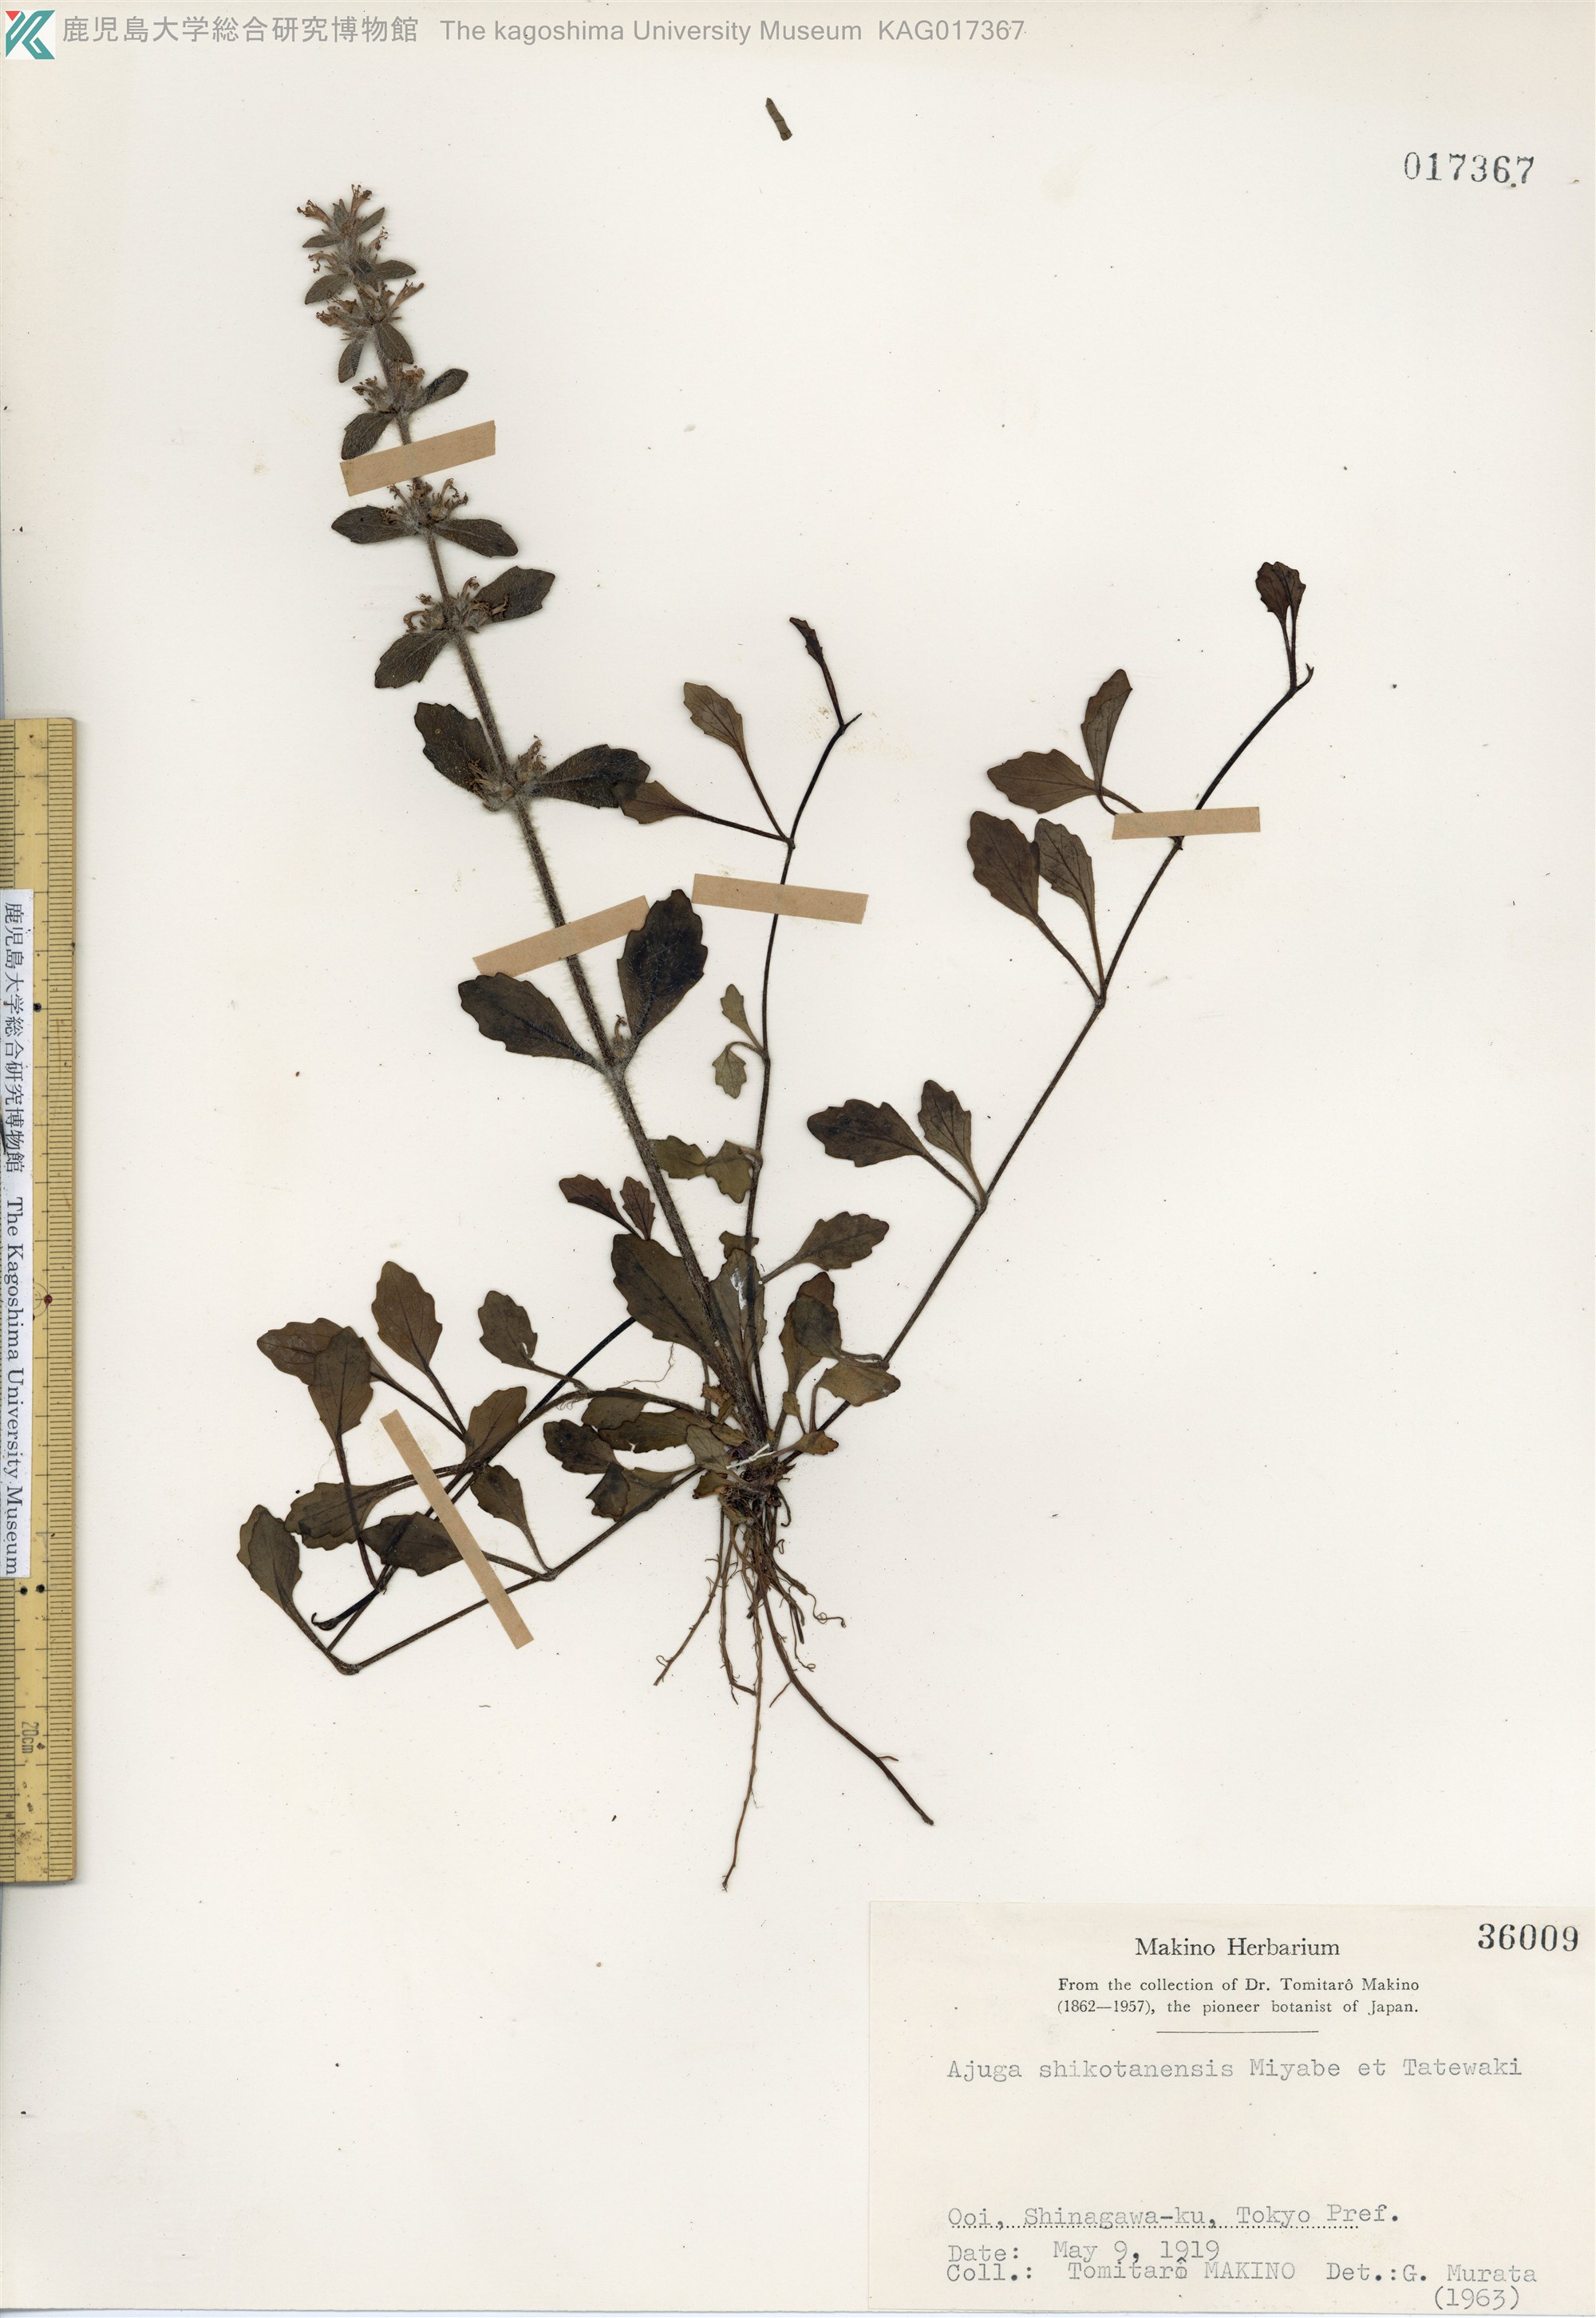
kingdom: Plantae
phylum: Tracheophyta
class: Magnoliopsida
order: Lamiales
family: Lamiaceae
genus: Ajuga
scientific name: Ajuga shikotanensis
